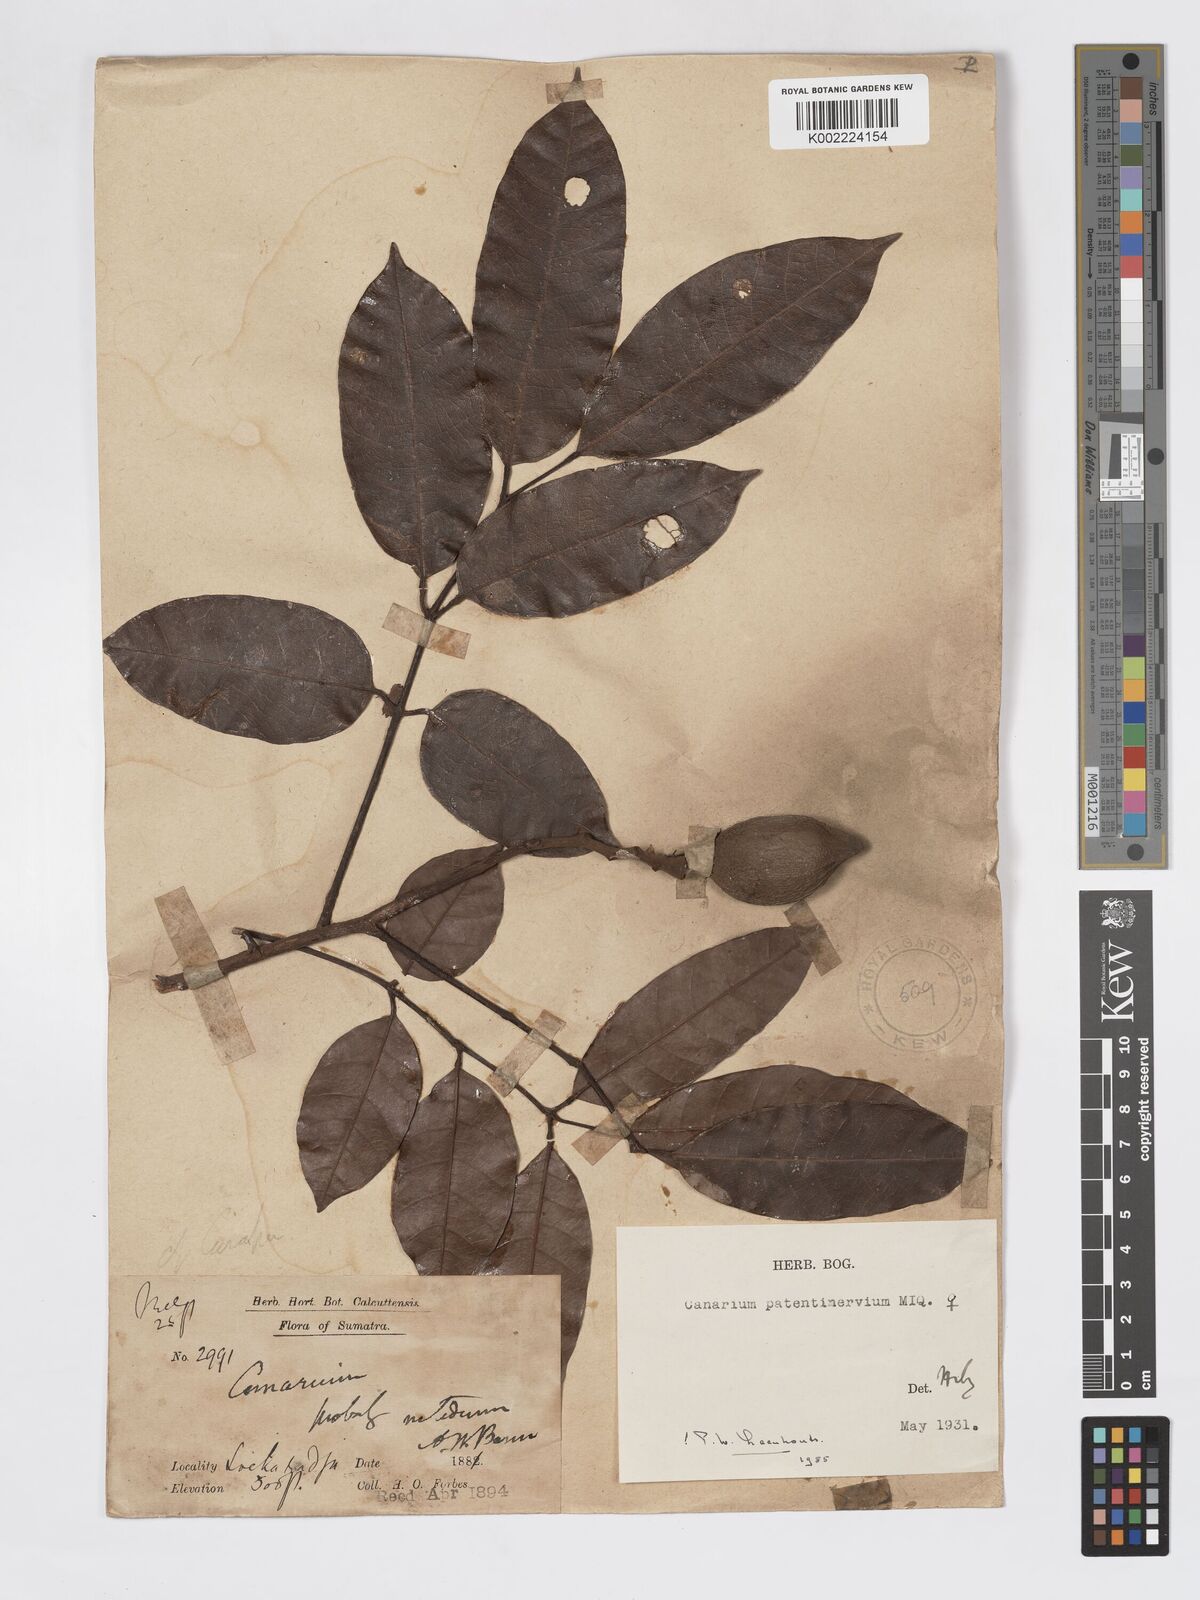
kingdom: Plantae
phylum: Tracheophyta
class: Magnoliopsida
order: Sapindales
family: Burseraceae
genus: Canarium
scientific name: Canarium patentinervium
